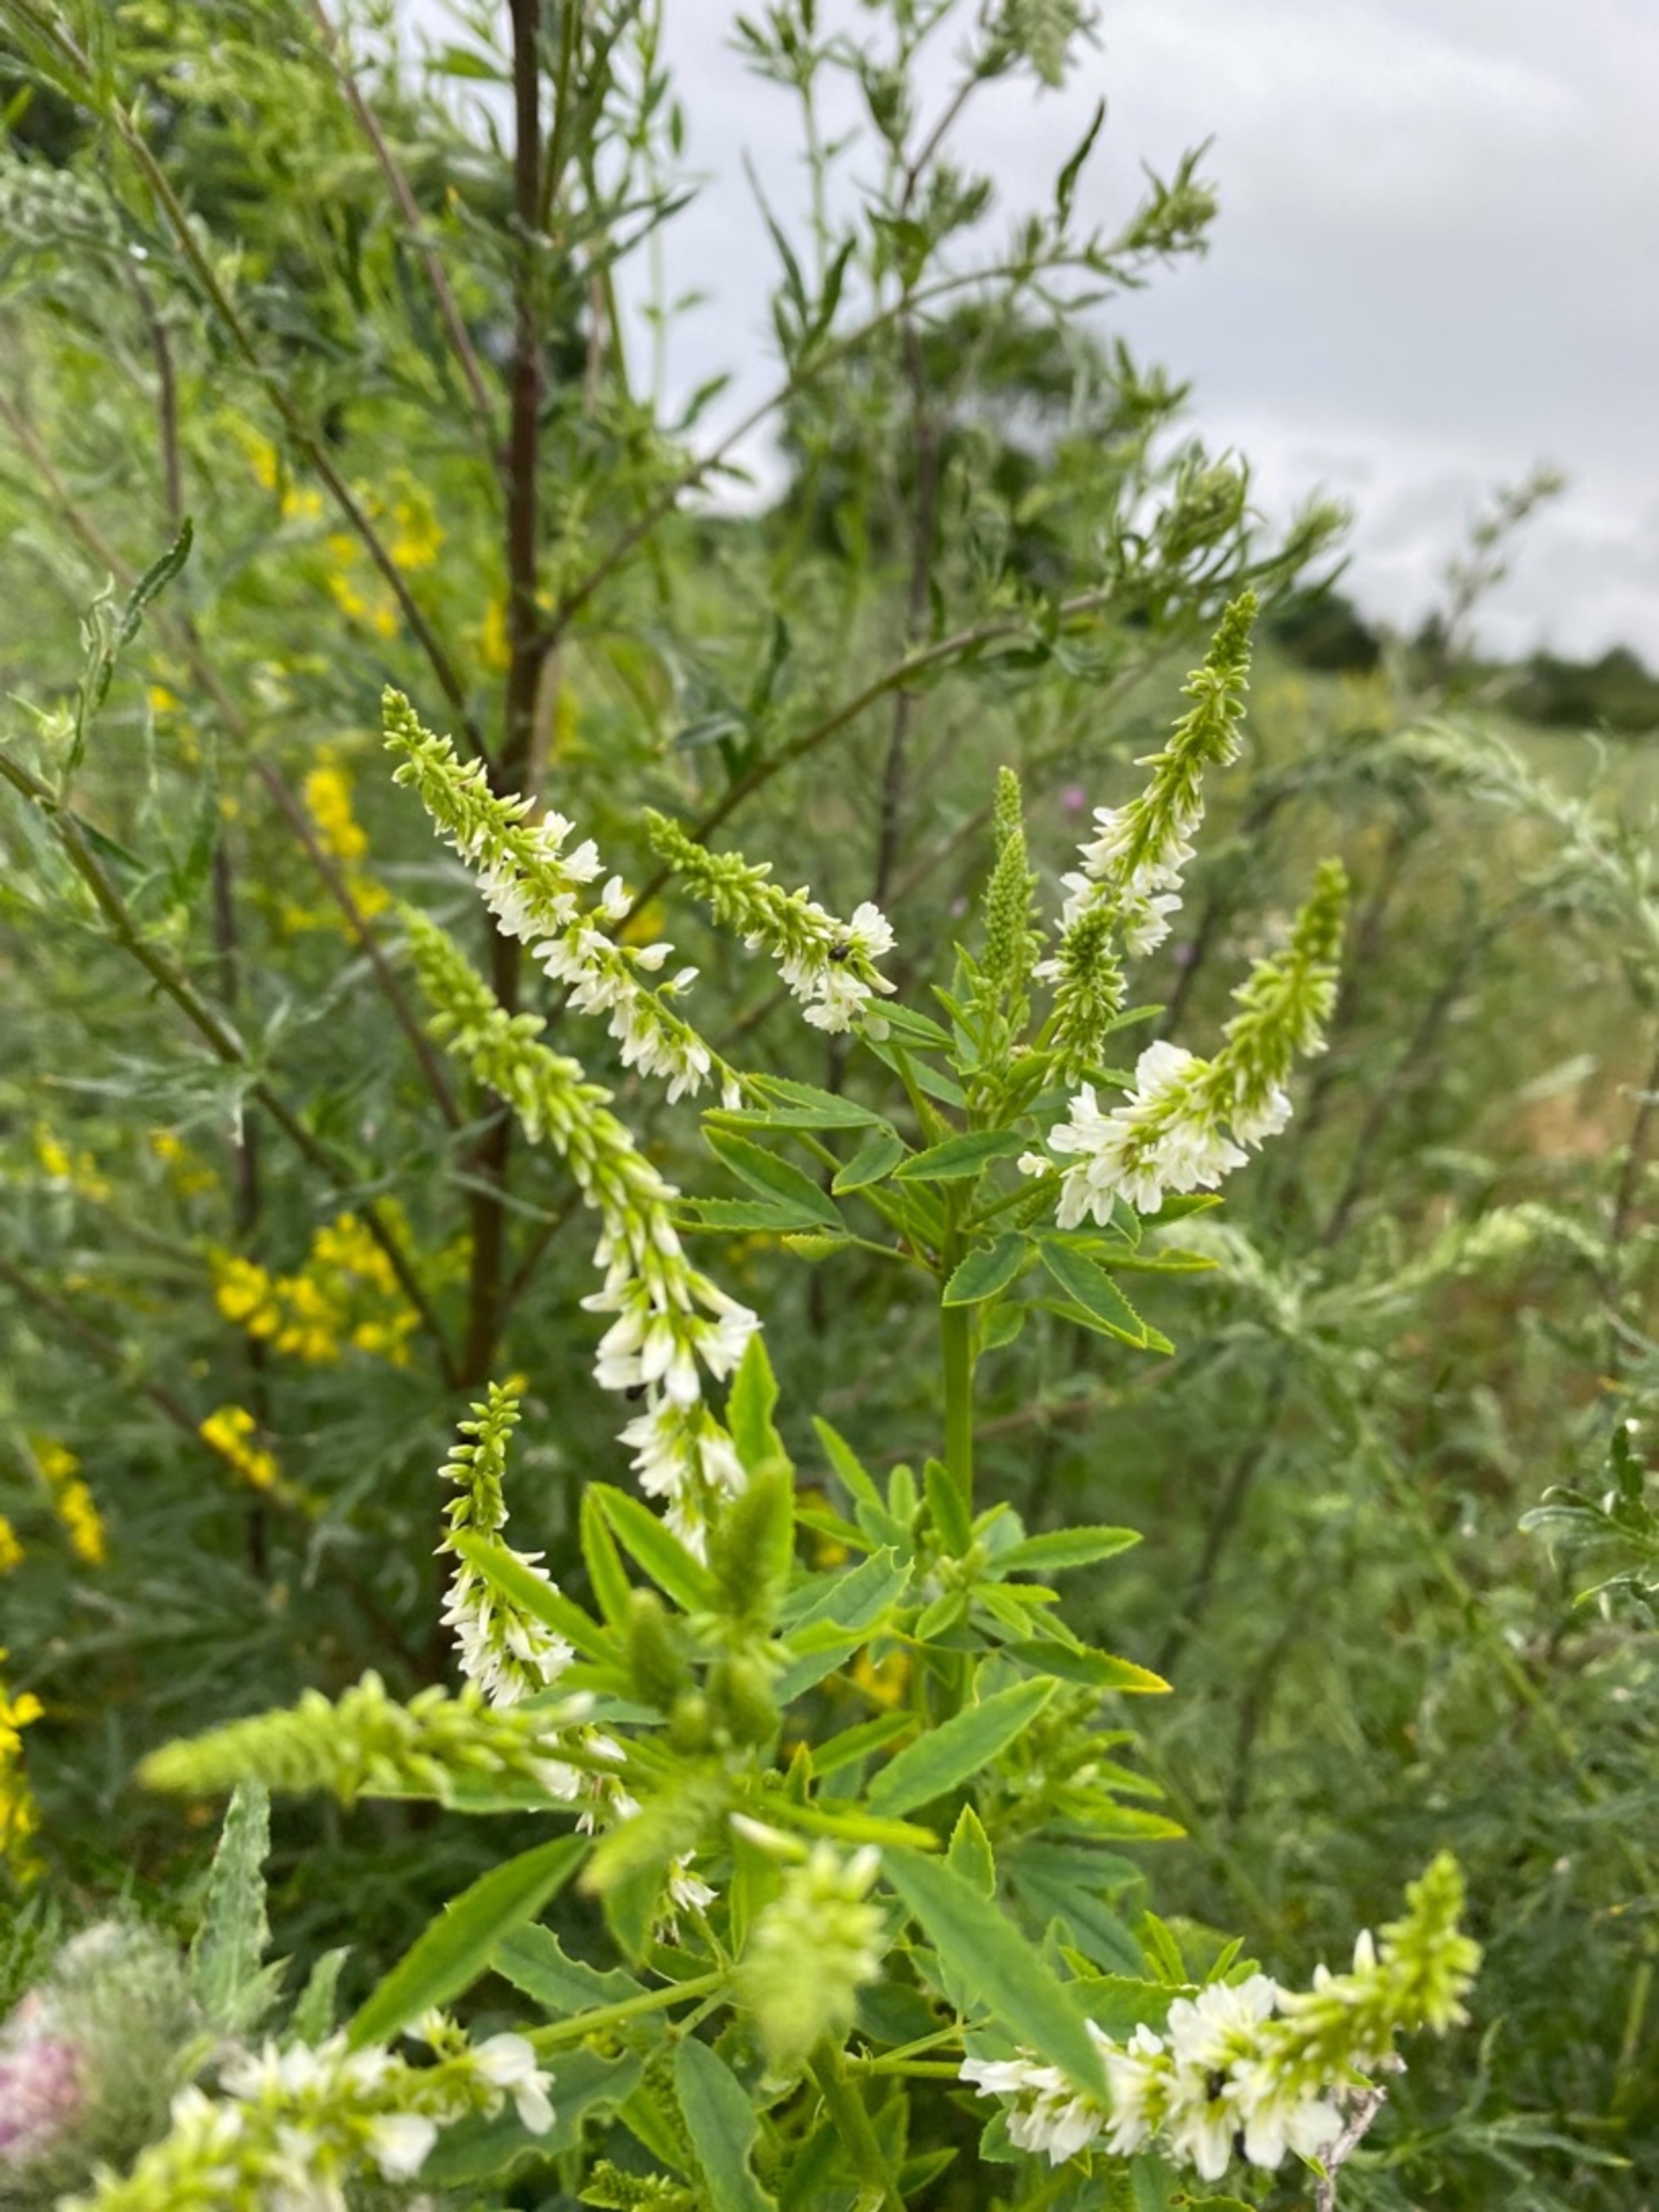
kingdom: Plantae
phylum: Tracheophyta
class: Magnoliopsida
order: Fabales
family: Fabaceae
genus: Melilotus
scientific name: Melilotus albus
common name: Hvid stenkløver
